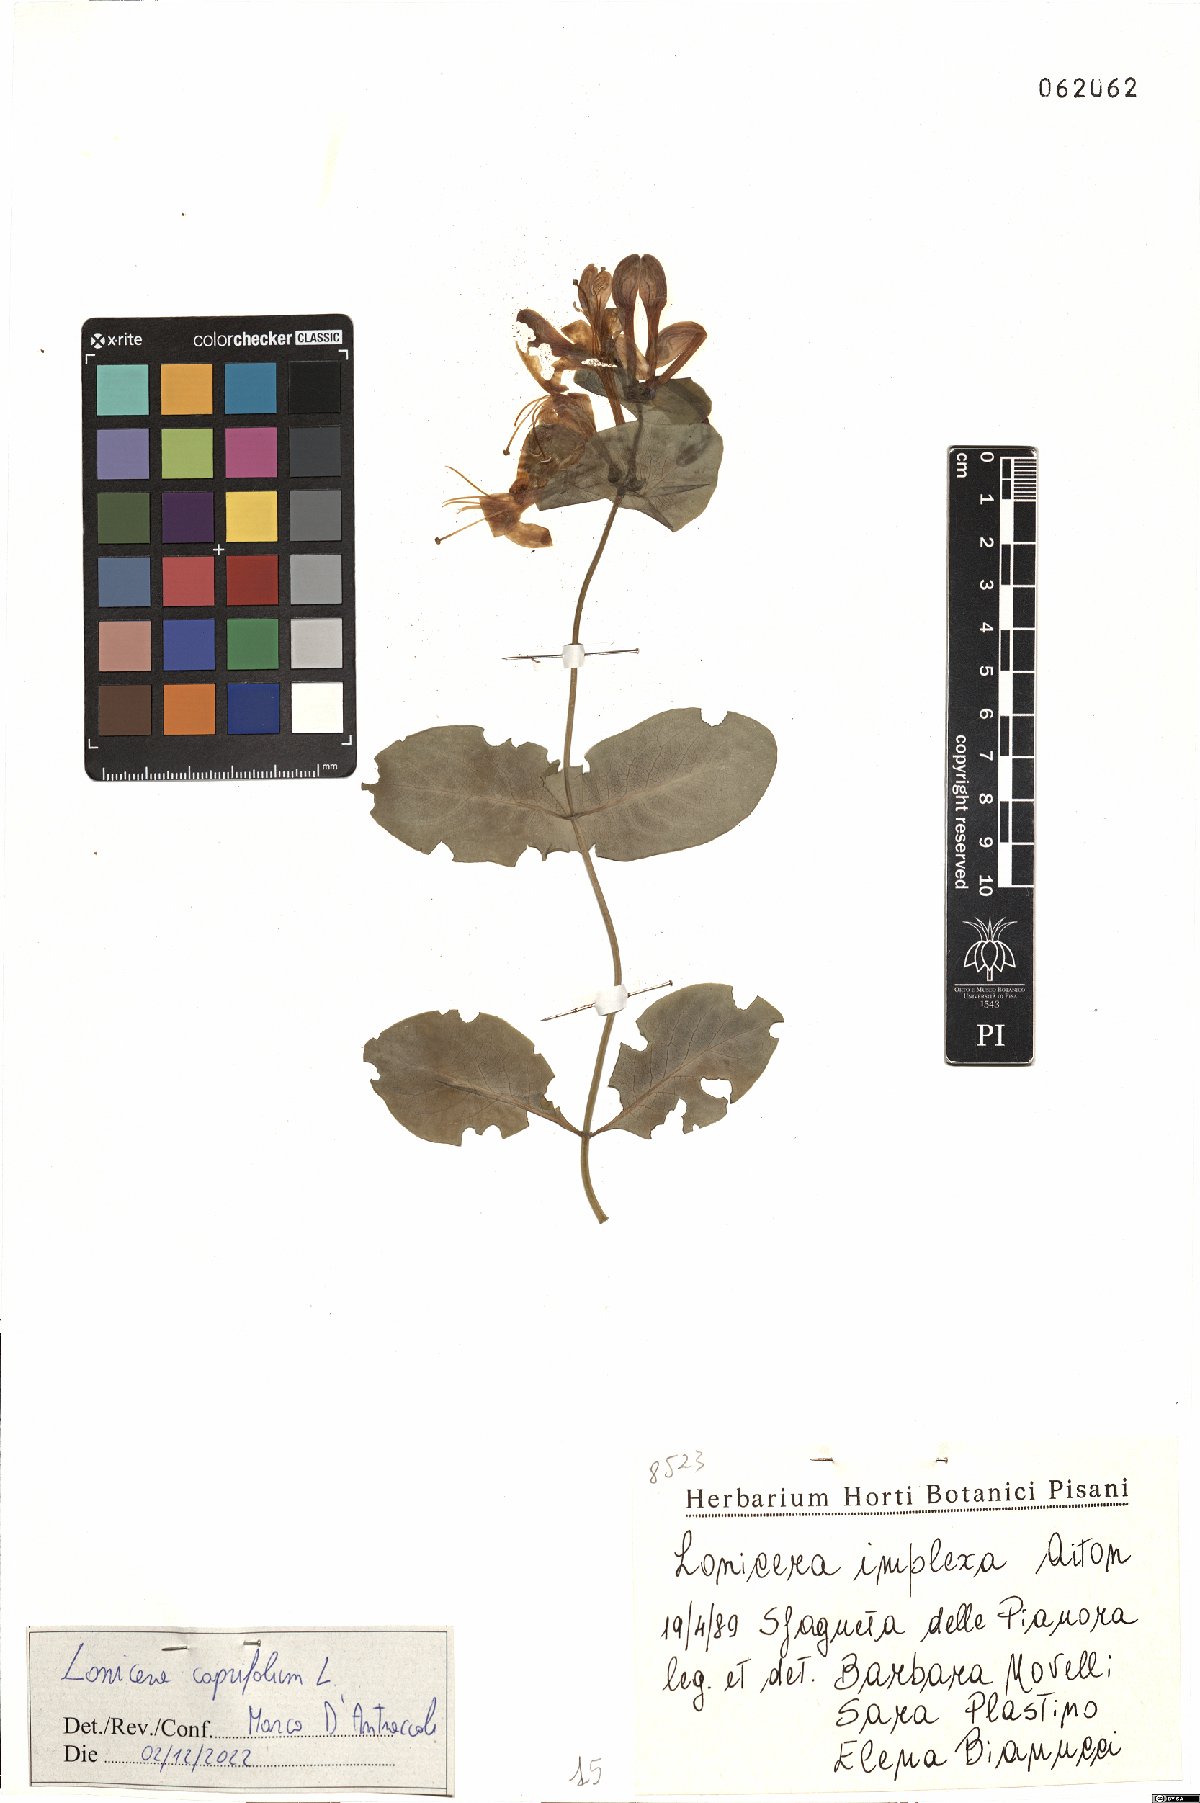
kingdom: Plantae
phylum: Tracheophyta
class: Magnoliopsida
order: Dipsacales
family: Caprifoliaceae
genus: Lonicera
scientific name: Lonicera caprifolium
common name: Perfoliate honeysuckle
